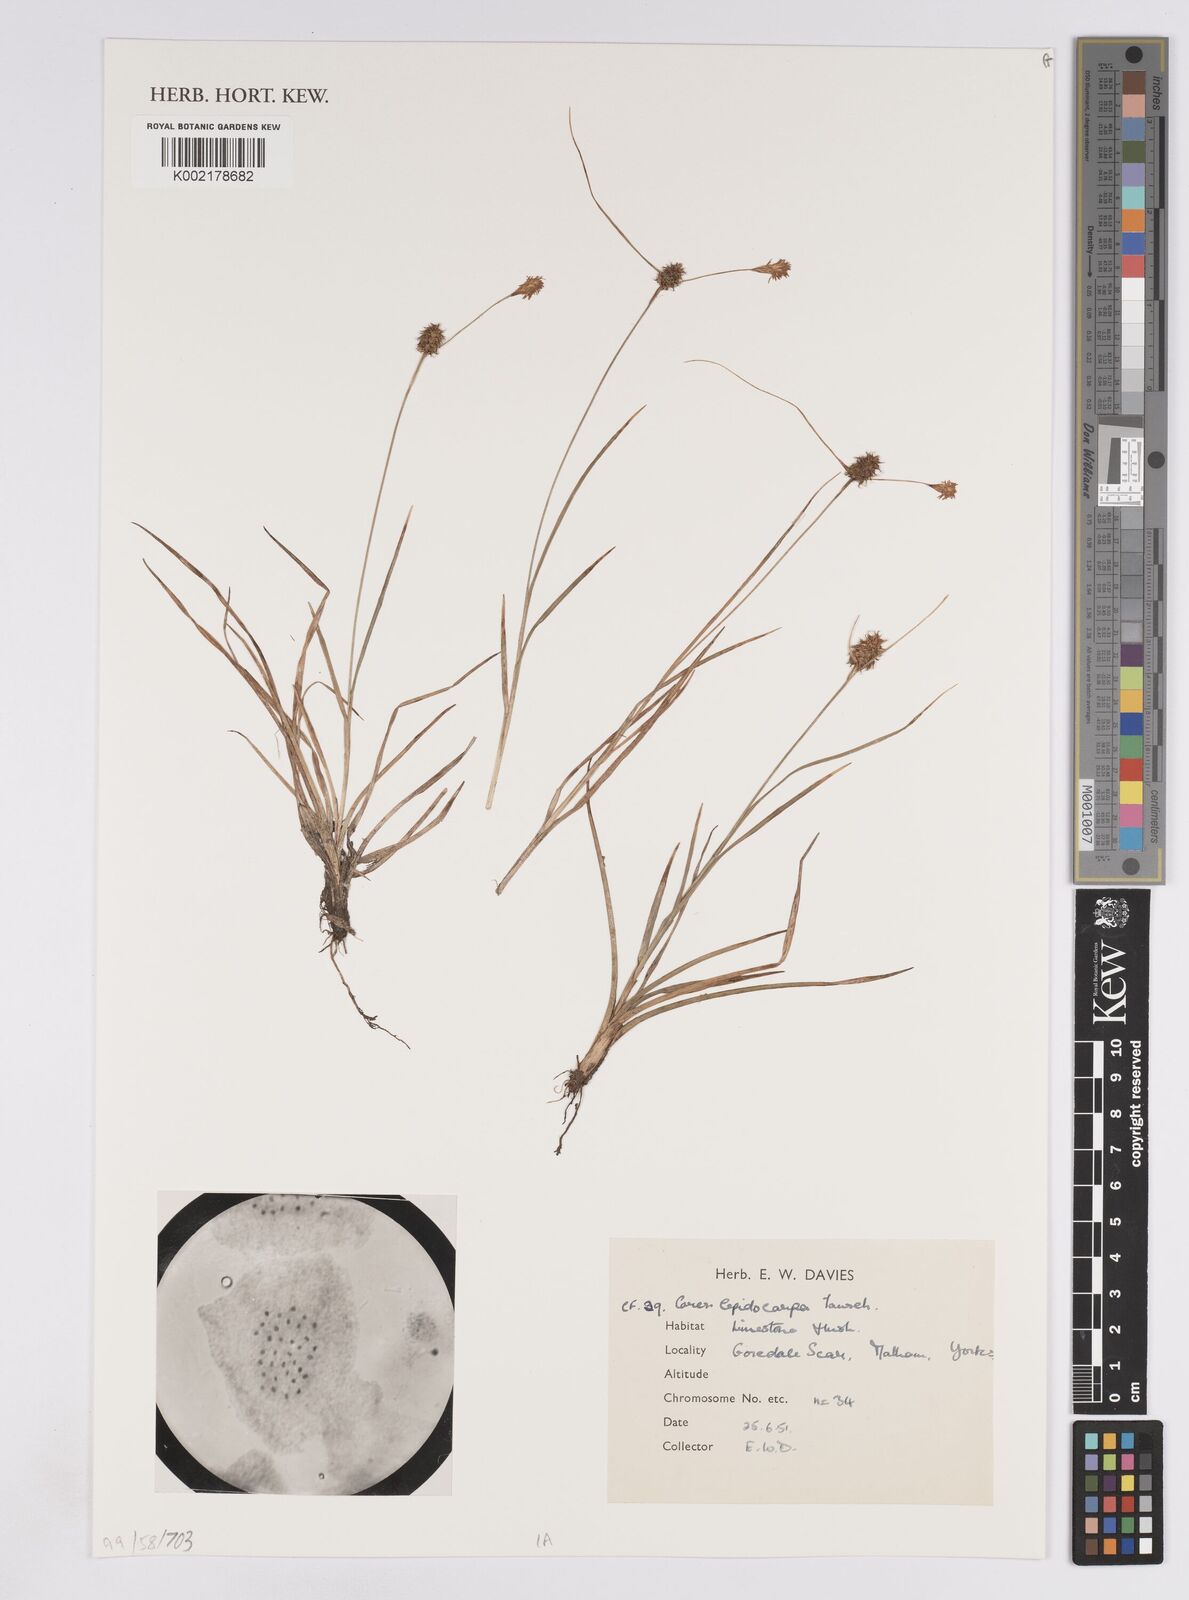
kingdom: Plantae
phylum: Tracheophyta
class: Liliopsida
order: Poales
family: Cyperaceae
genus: Carex
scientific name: Carex lepidocarpa
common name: Long-stalked yellow-sedge
